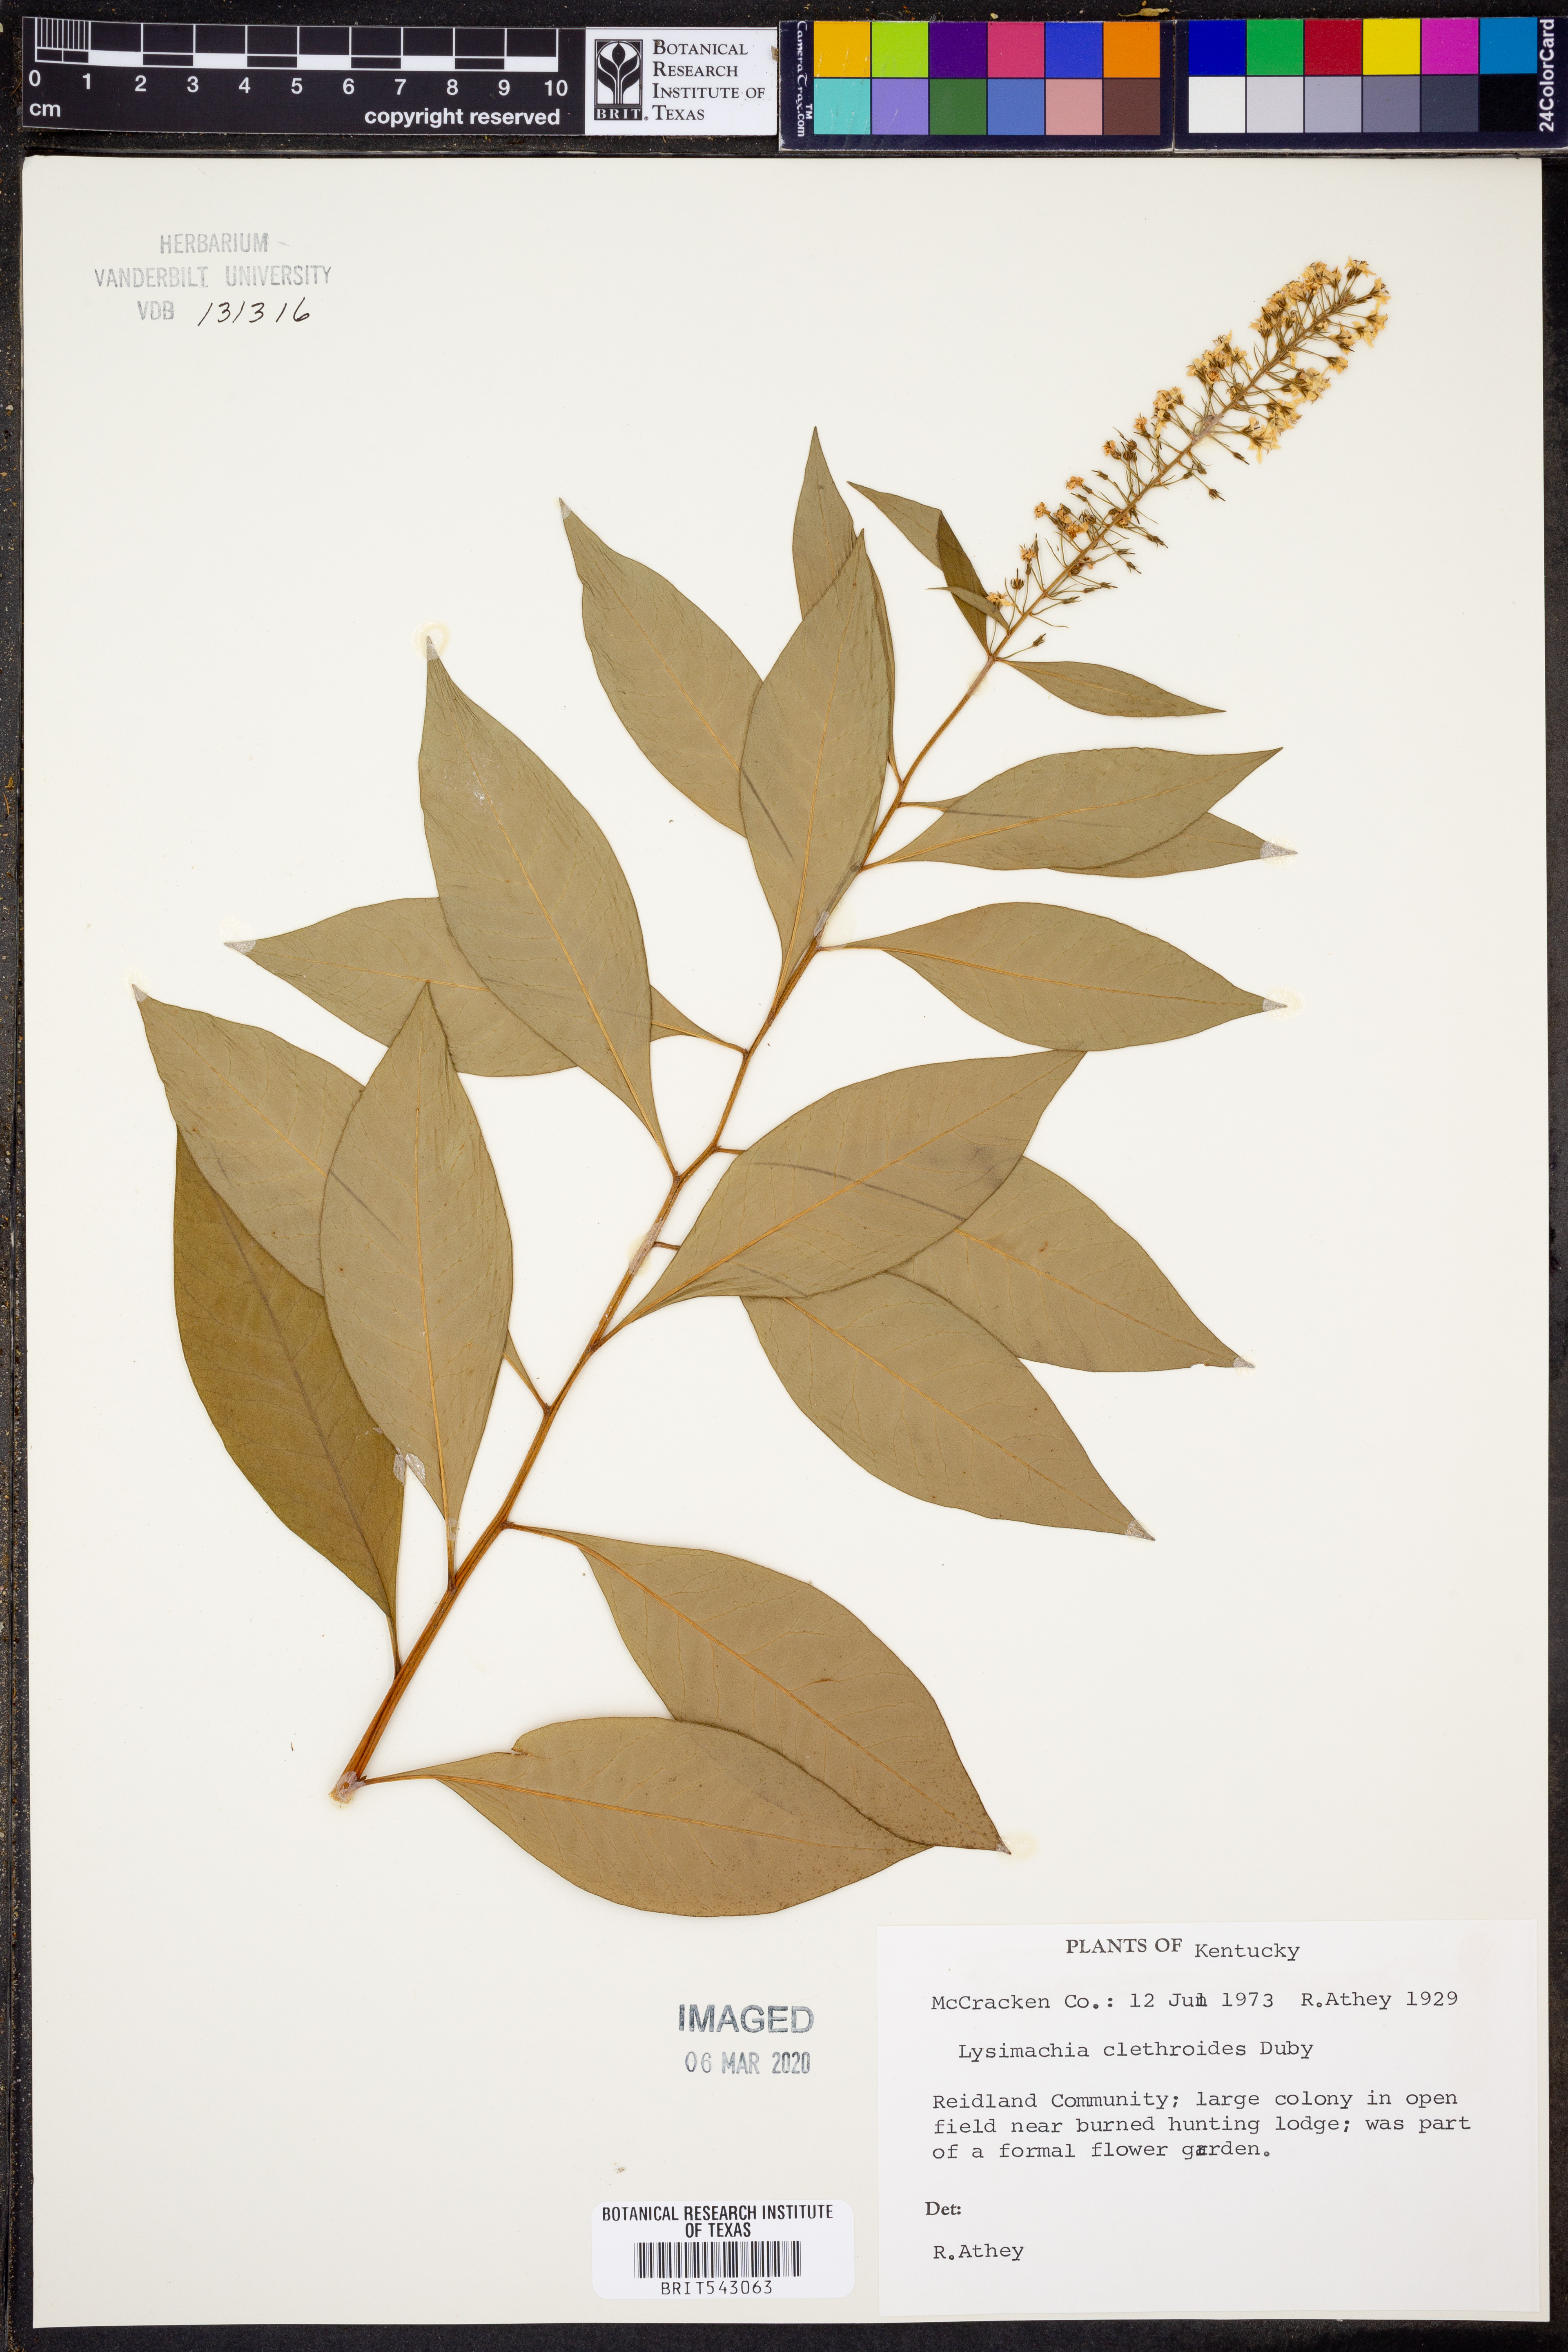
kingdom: Plantae
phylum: Tracheophyta
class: Magnoliopsida
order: Ericales
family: Primulaceae
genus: Lysimachia
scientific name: Lysimachia clethroides
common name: Gooseneck loosestrife
